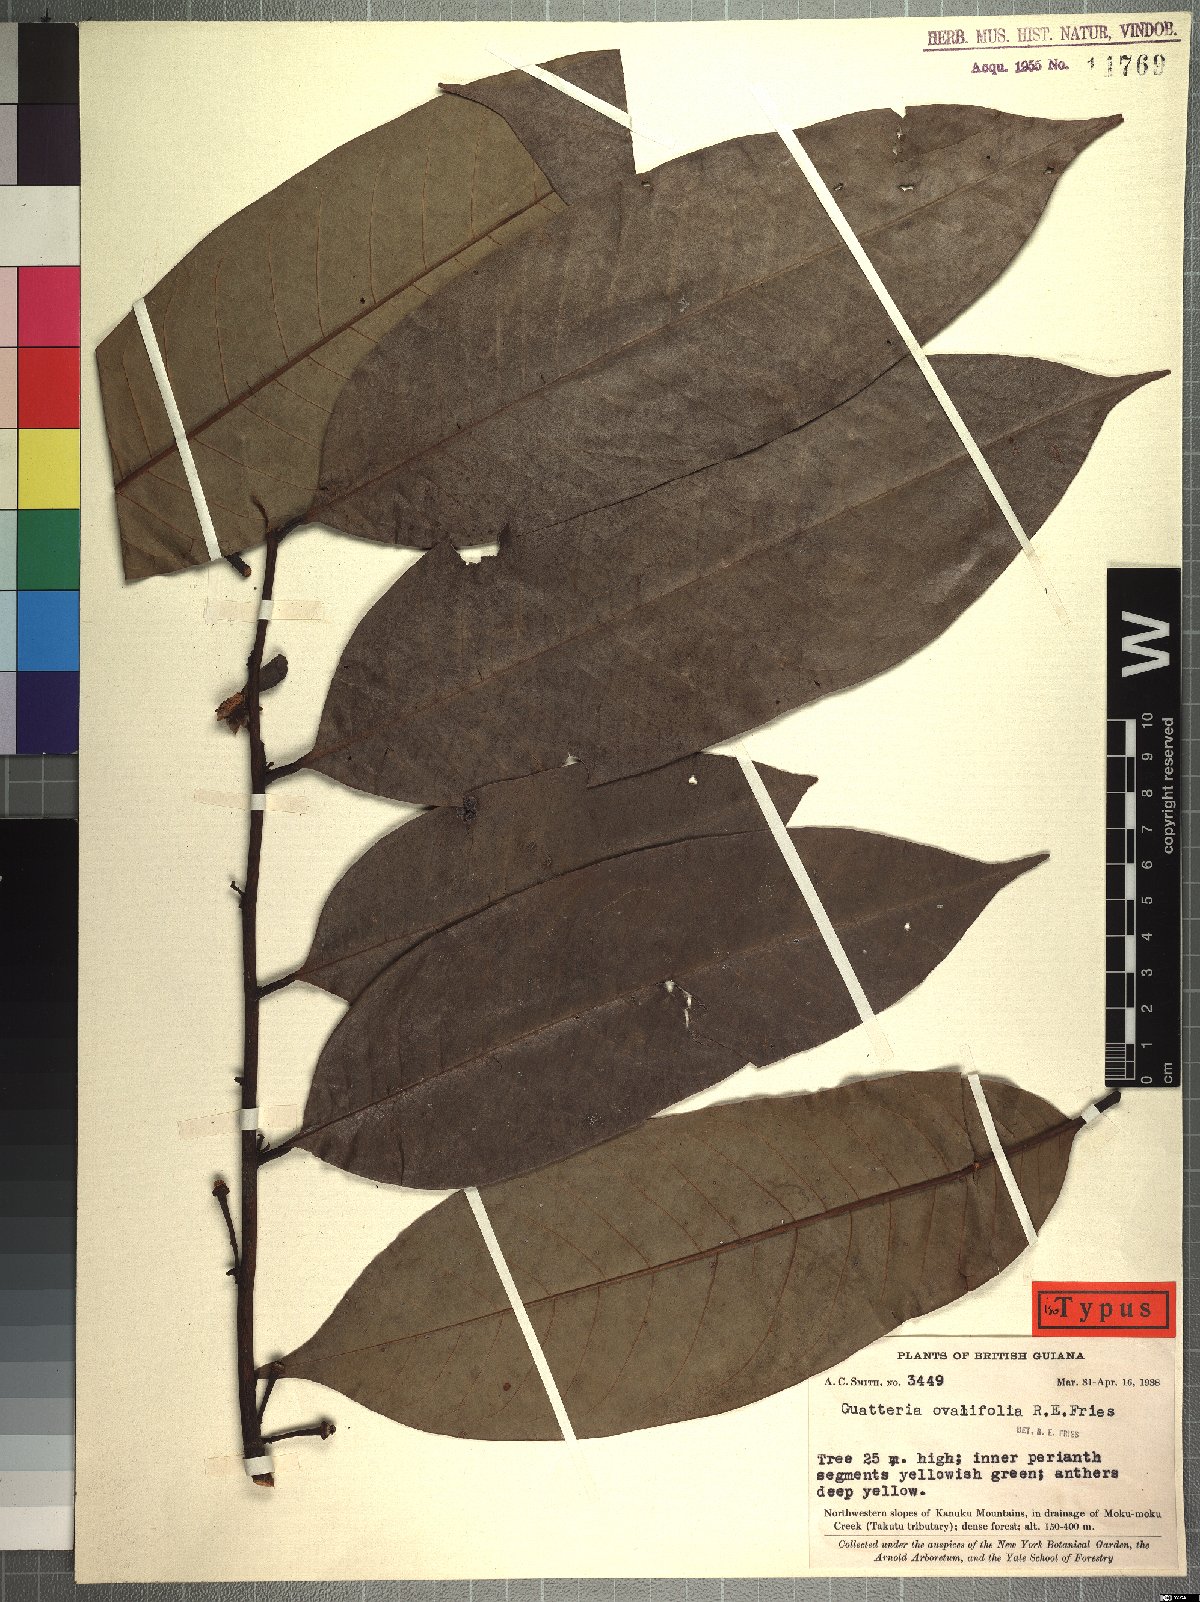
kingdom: Plantae
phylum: Tracheophyta
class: Magnoliopsida
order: Magnoliales
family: Annonaceae
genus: Guatteria
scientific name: Guatteria ovalifolia
